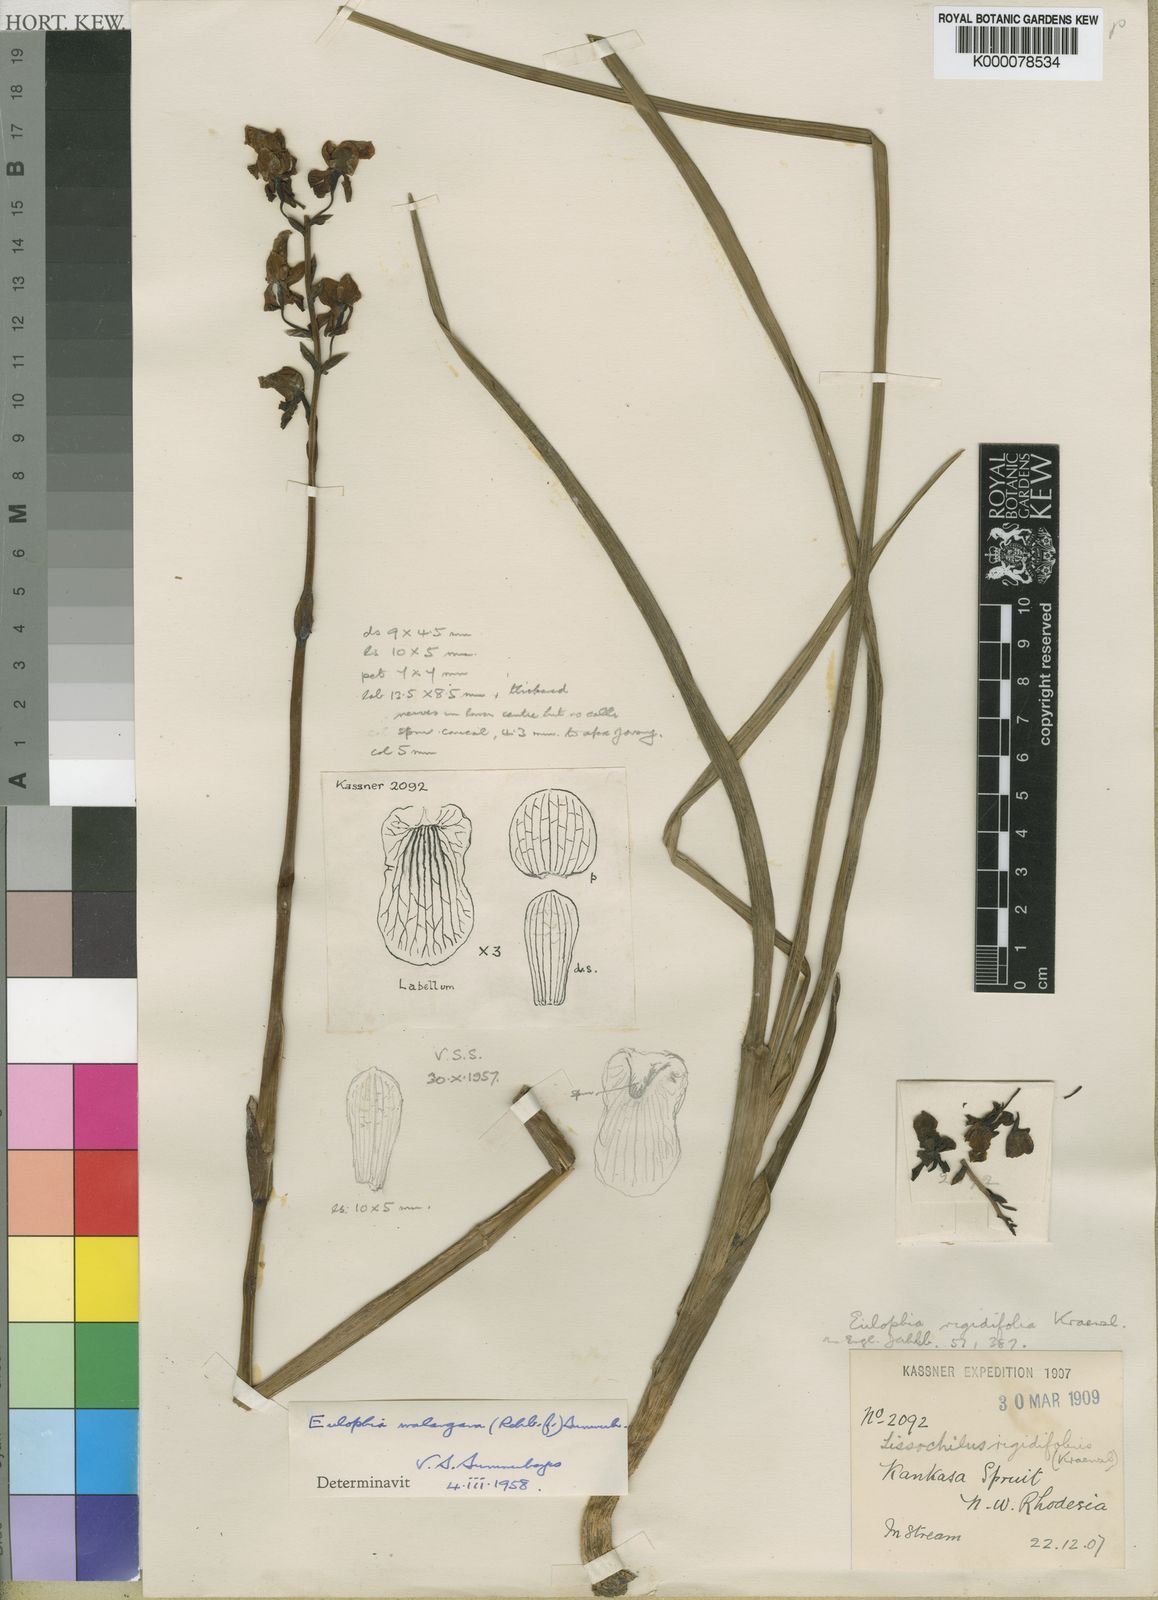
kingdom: Plantae
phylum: Tracheophyta
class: Liliopsida
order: Asparagales
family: Orchidaceae
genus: Eulophia
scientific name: Eulophia malangana
